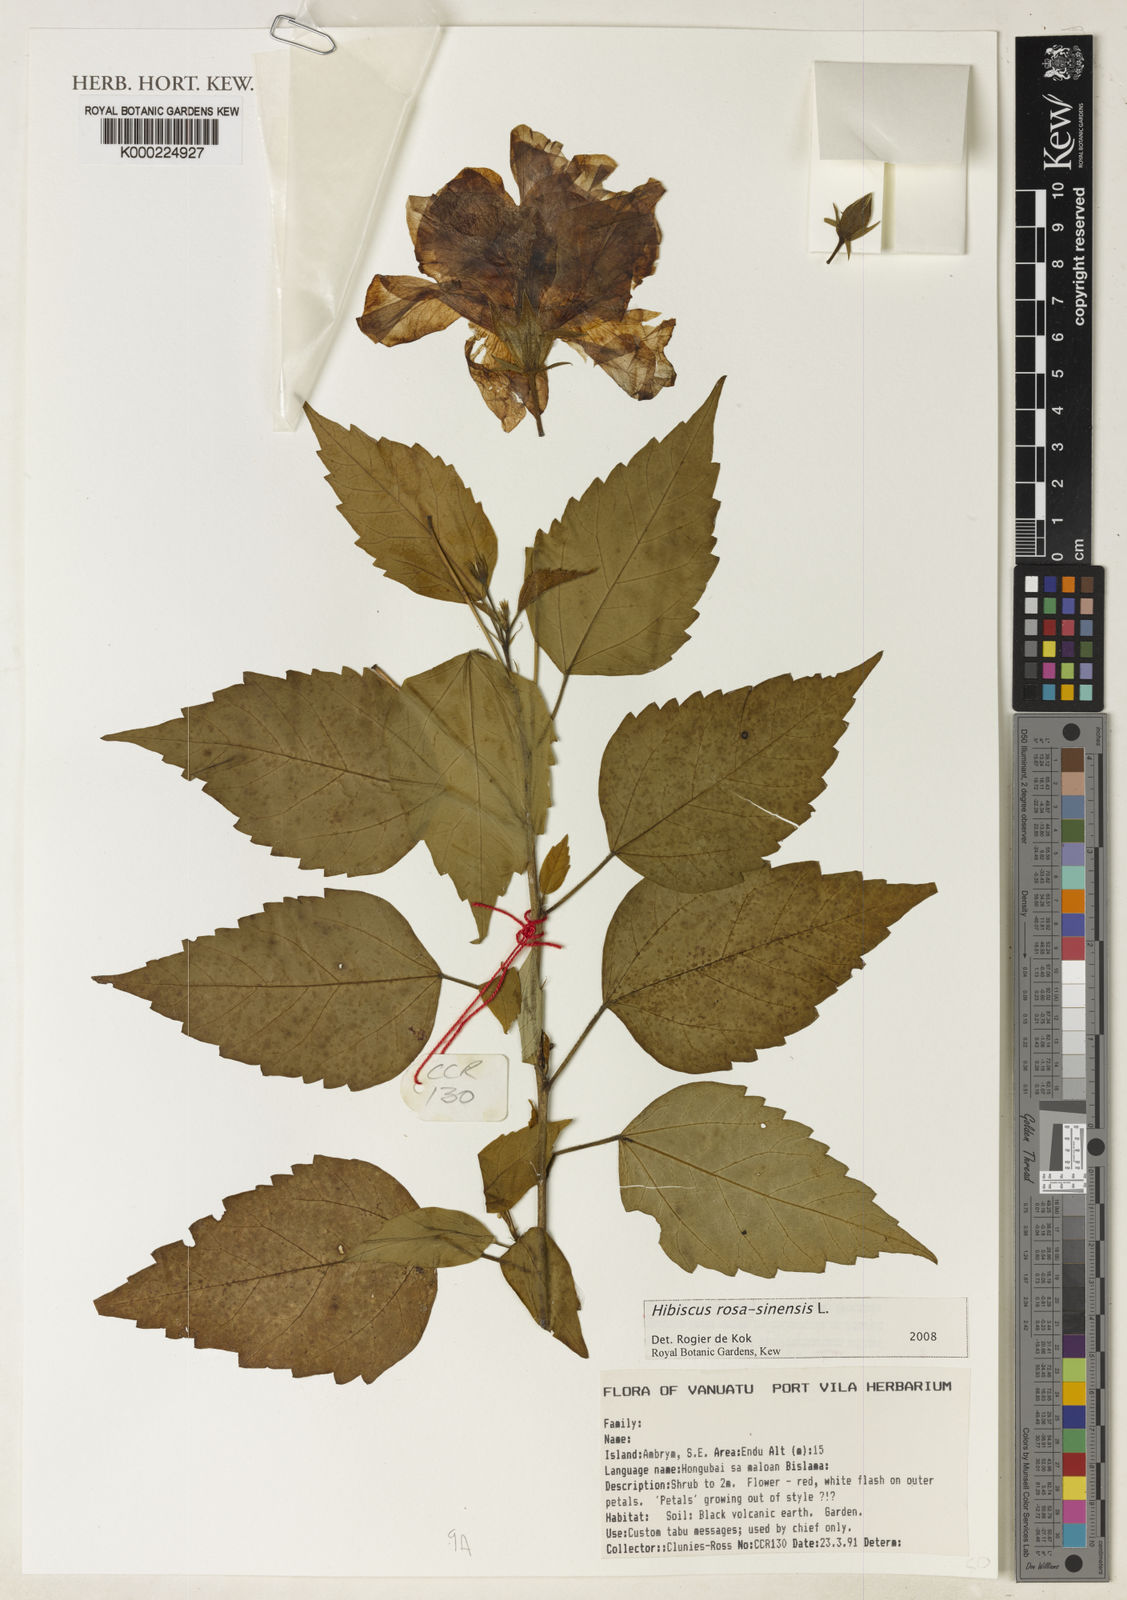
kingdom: Plantae
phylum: Tracheophyta
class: Magnoliopsida
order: Malvales
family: Malvaceae
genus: Hibiscus
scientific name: Hibiscus rosa-sinensis
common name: Hibiscus
